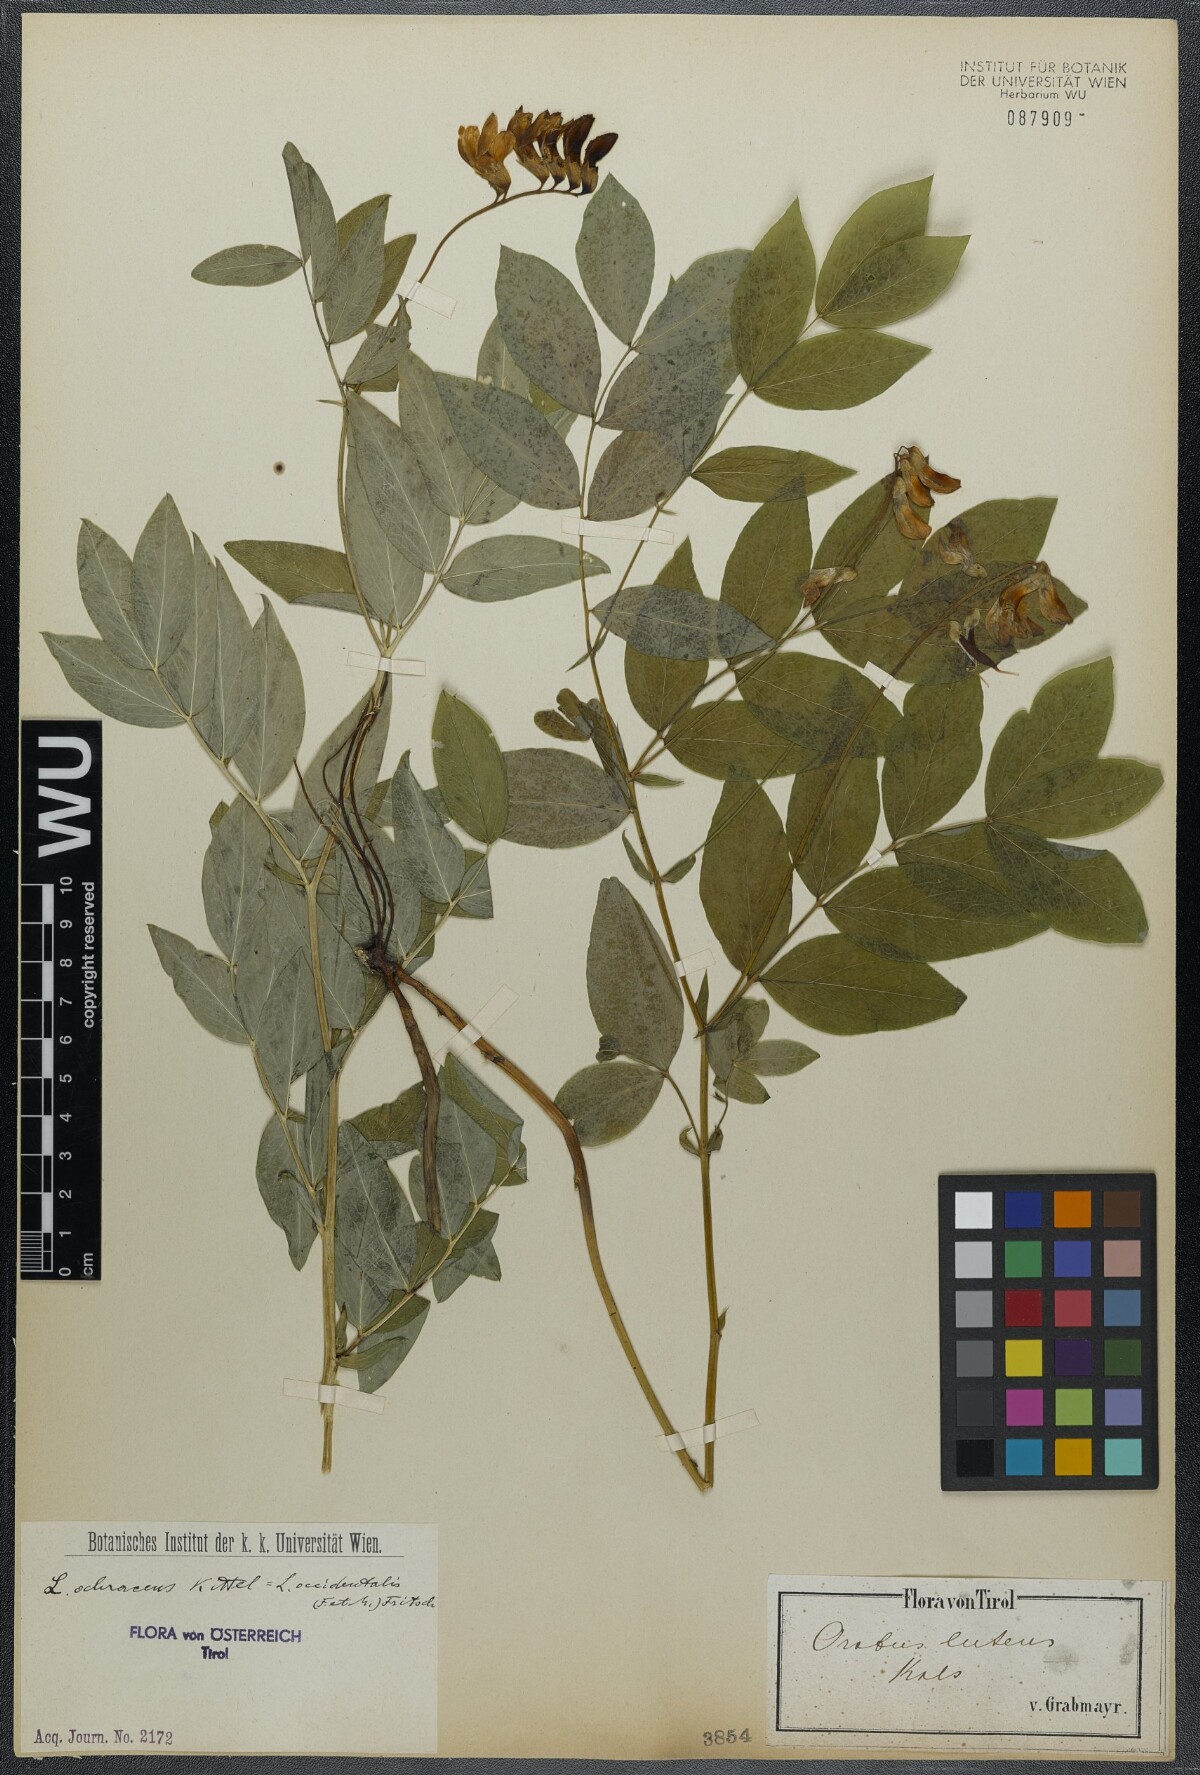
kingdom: Plantae
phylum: Tracheophyta
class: Magnoliopsida
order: Fabales
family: Fabaceae
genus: Lathyrus
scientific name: Lathyrus laevigatus
